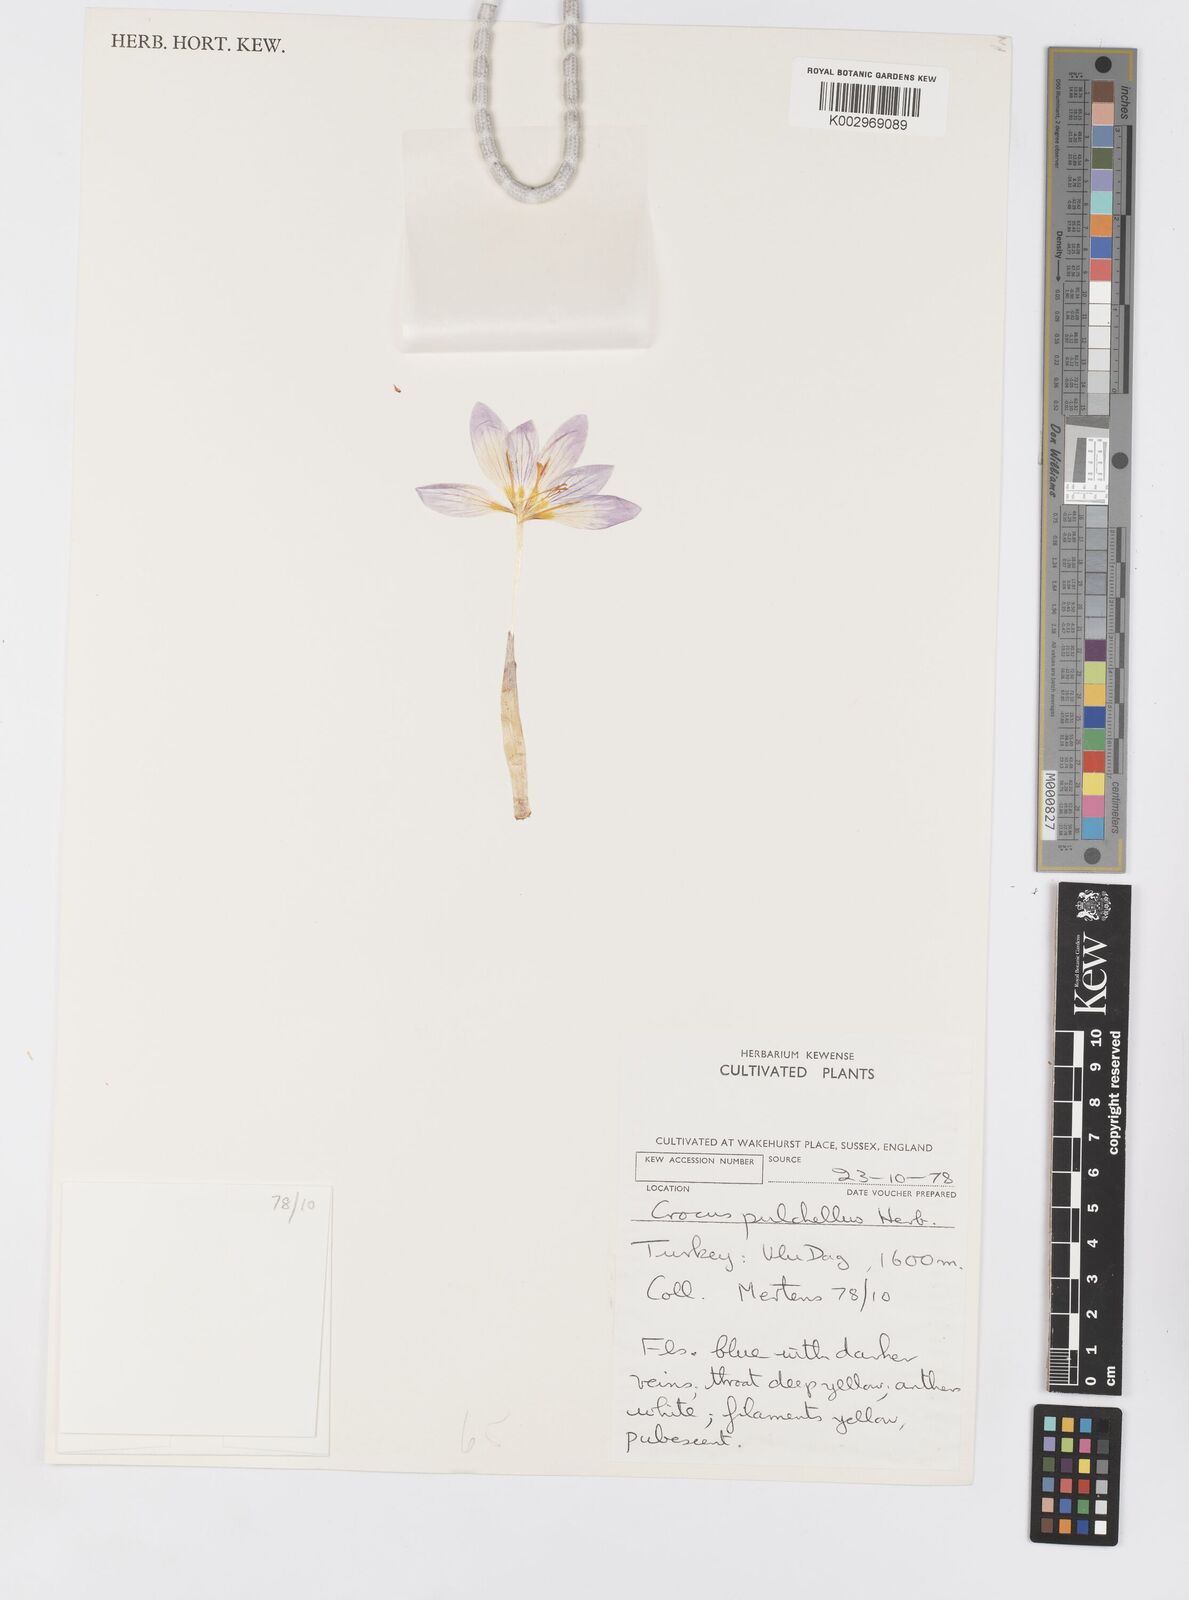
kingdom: Plantae
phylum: Tracheophyta
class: Liliopsida
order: Asparagales
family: Iridaceae
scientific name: Iridaceae
